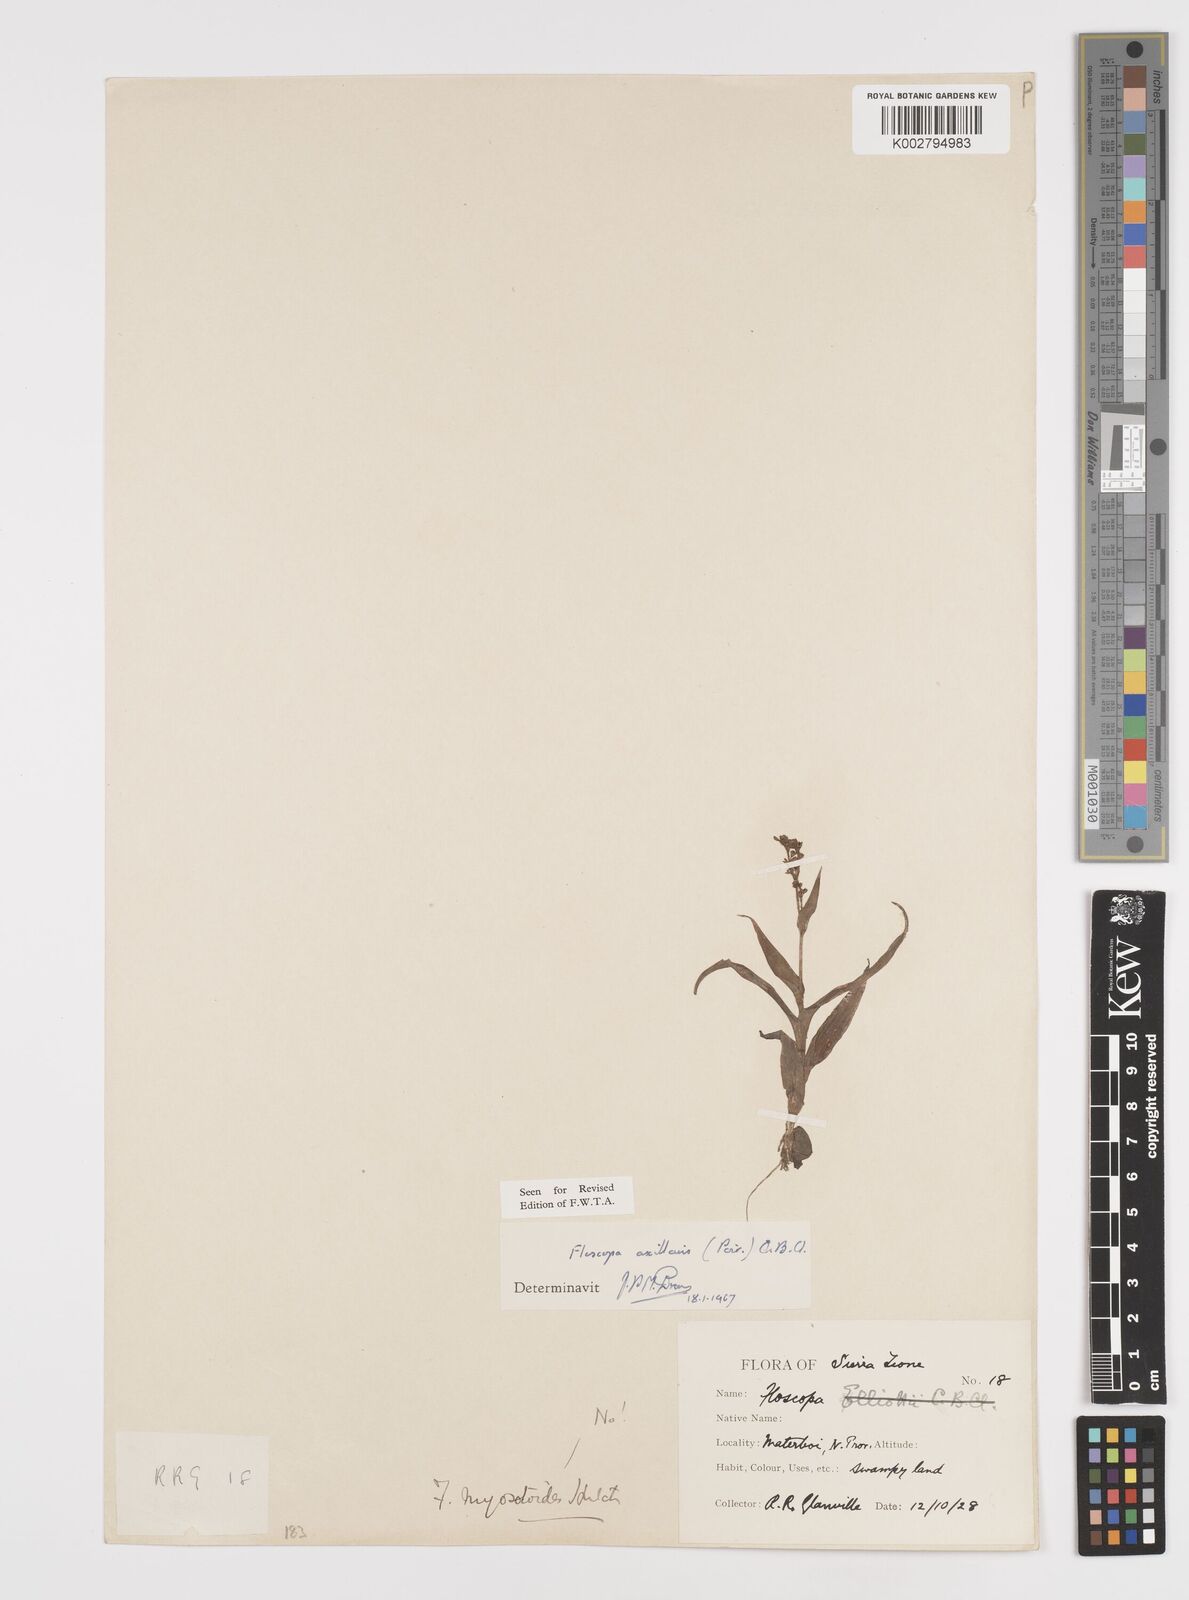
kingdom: Plantae
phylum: Tracheophyta
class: Liliopsida
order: Commelinales
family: Commelinaceae
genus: Floscopa
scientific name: Floscopa axillaris
